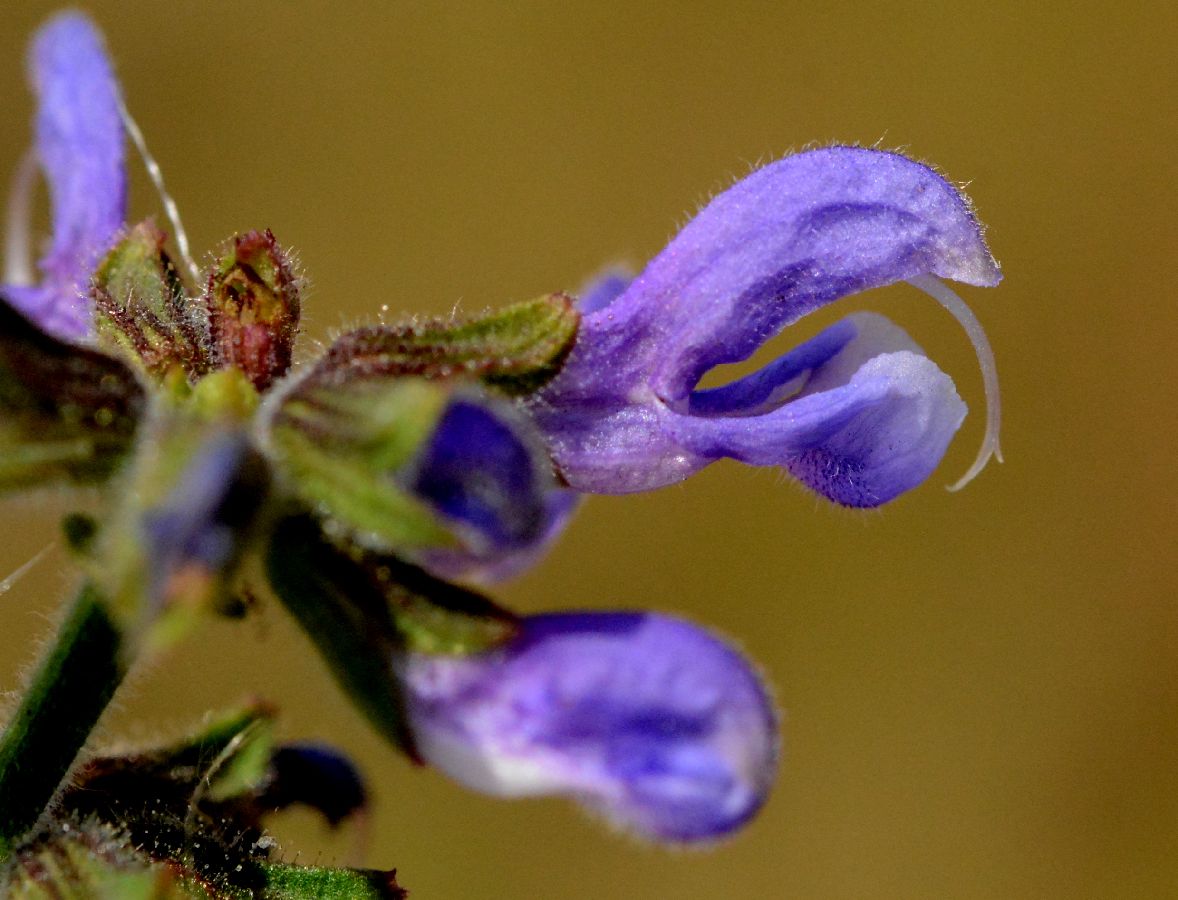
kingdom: Plantae
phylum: Tracheophyta
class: Magnoliopsida
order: Lamiales
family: Lamiaceae
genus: Salvia
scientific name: Salvia pratensis
